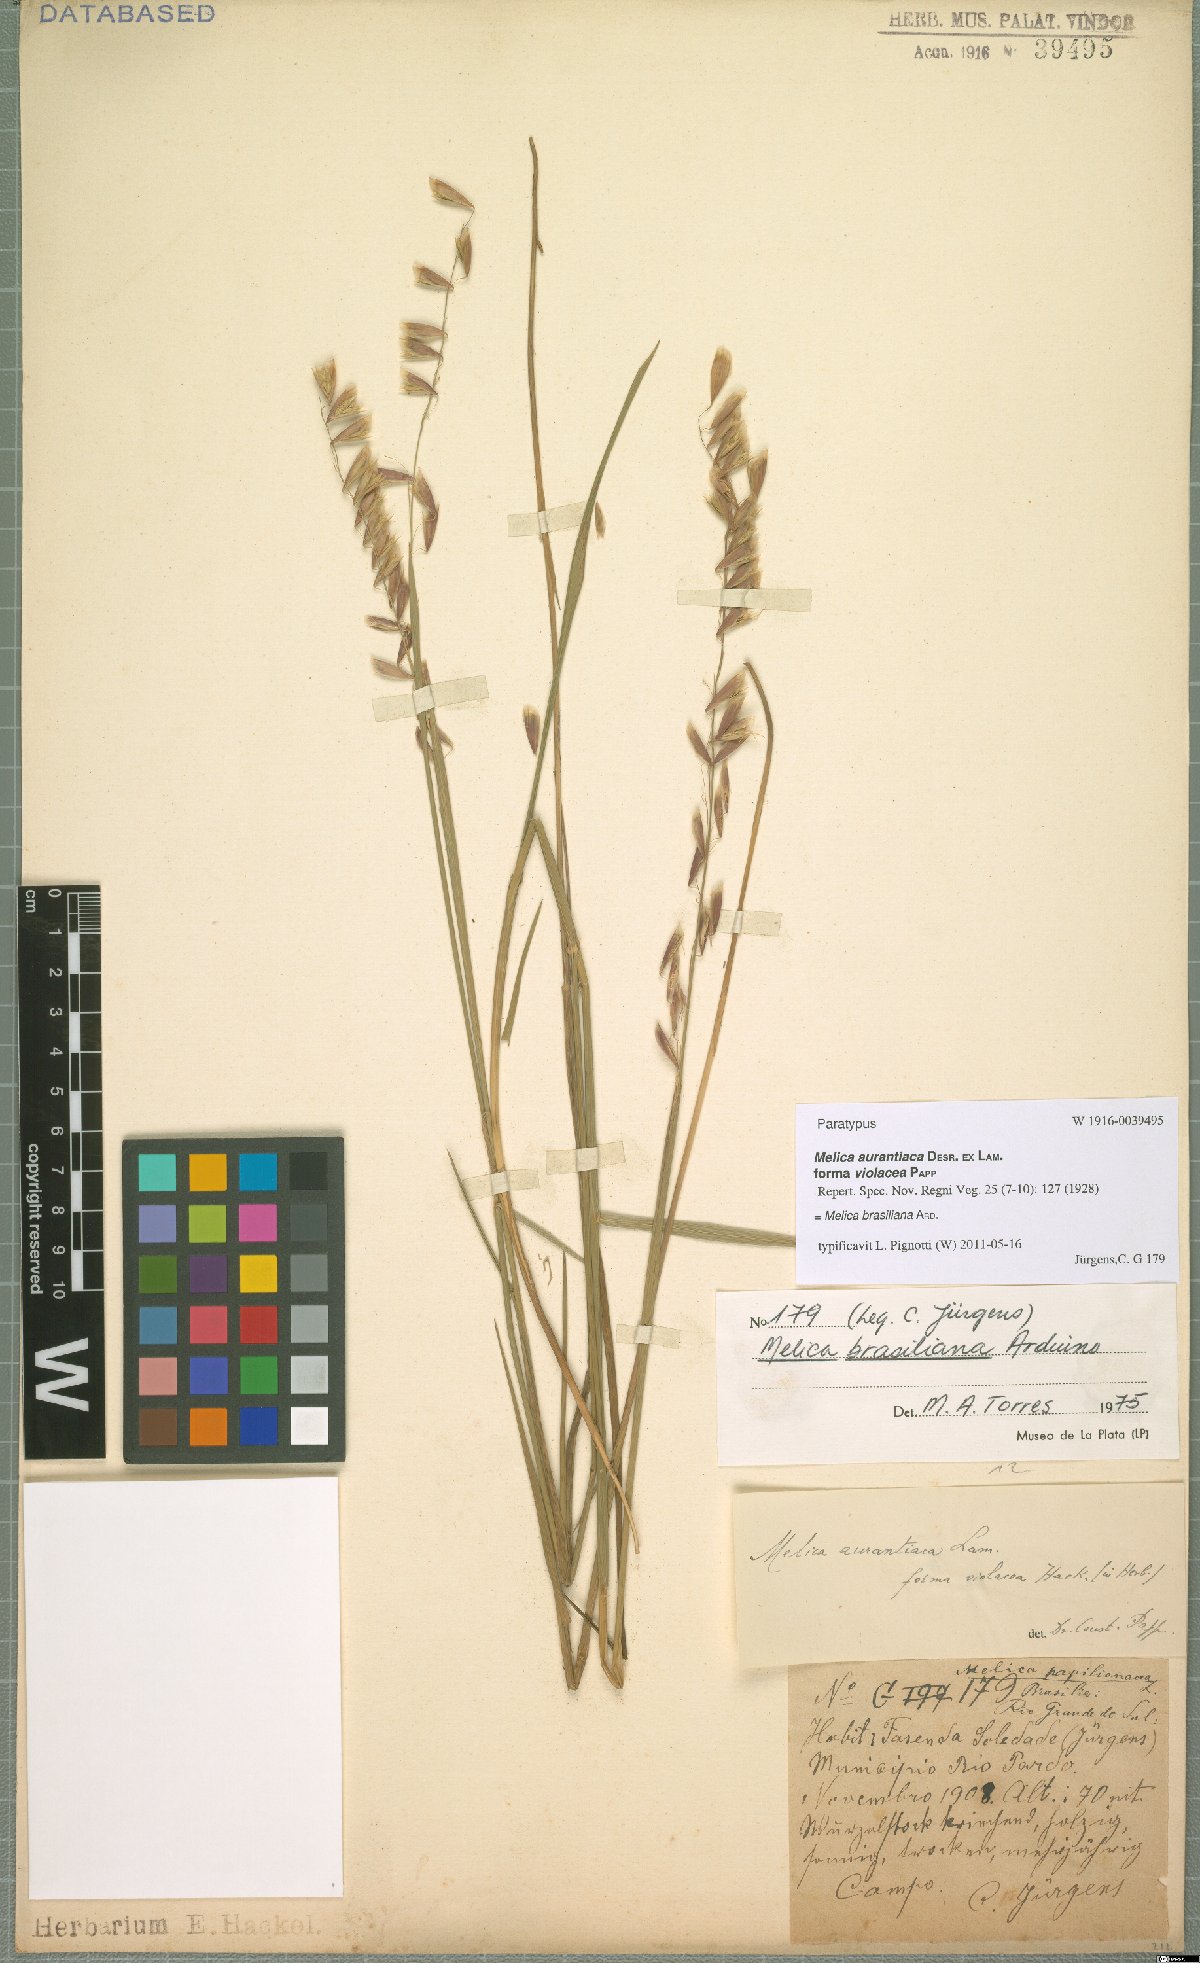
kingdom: Plantae
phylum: Tracheophyta
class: Liliopsida
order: Poales
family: Poaceae
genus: Melica
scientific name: Melica brasiliana
